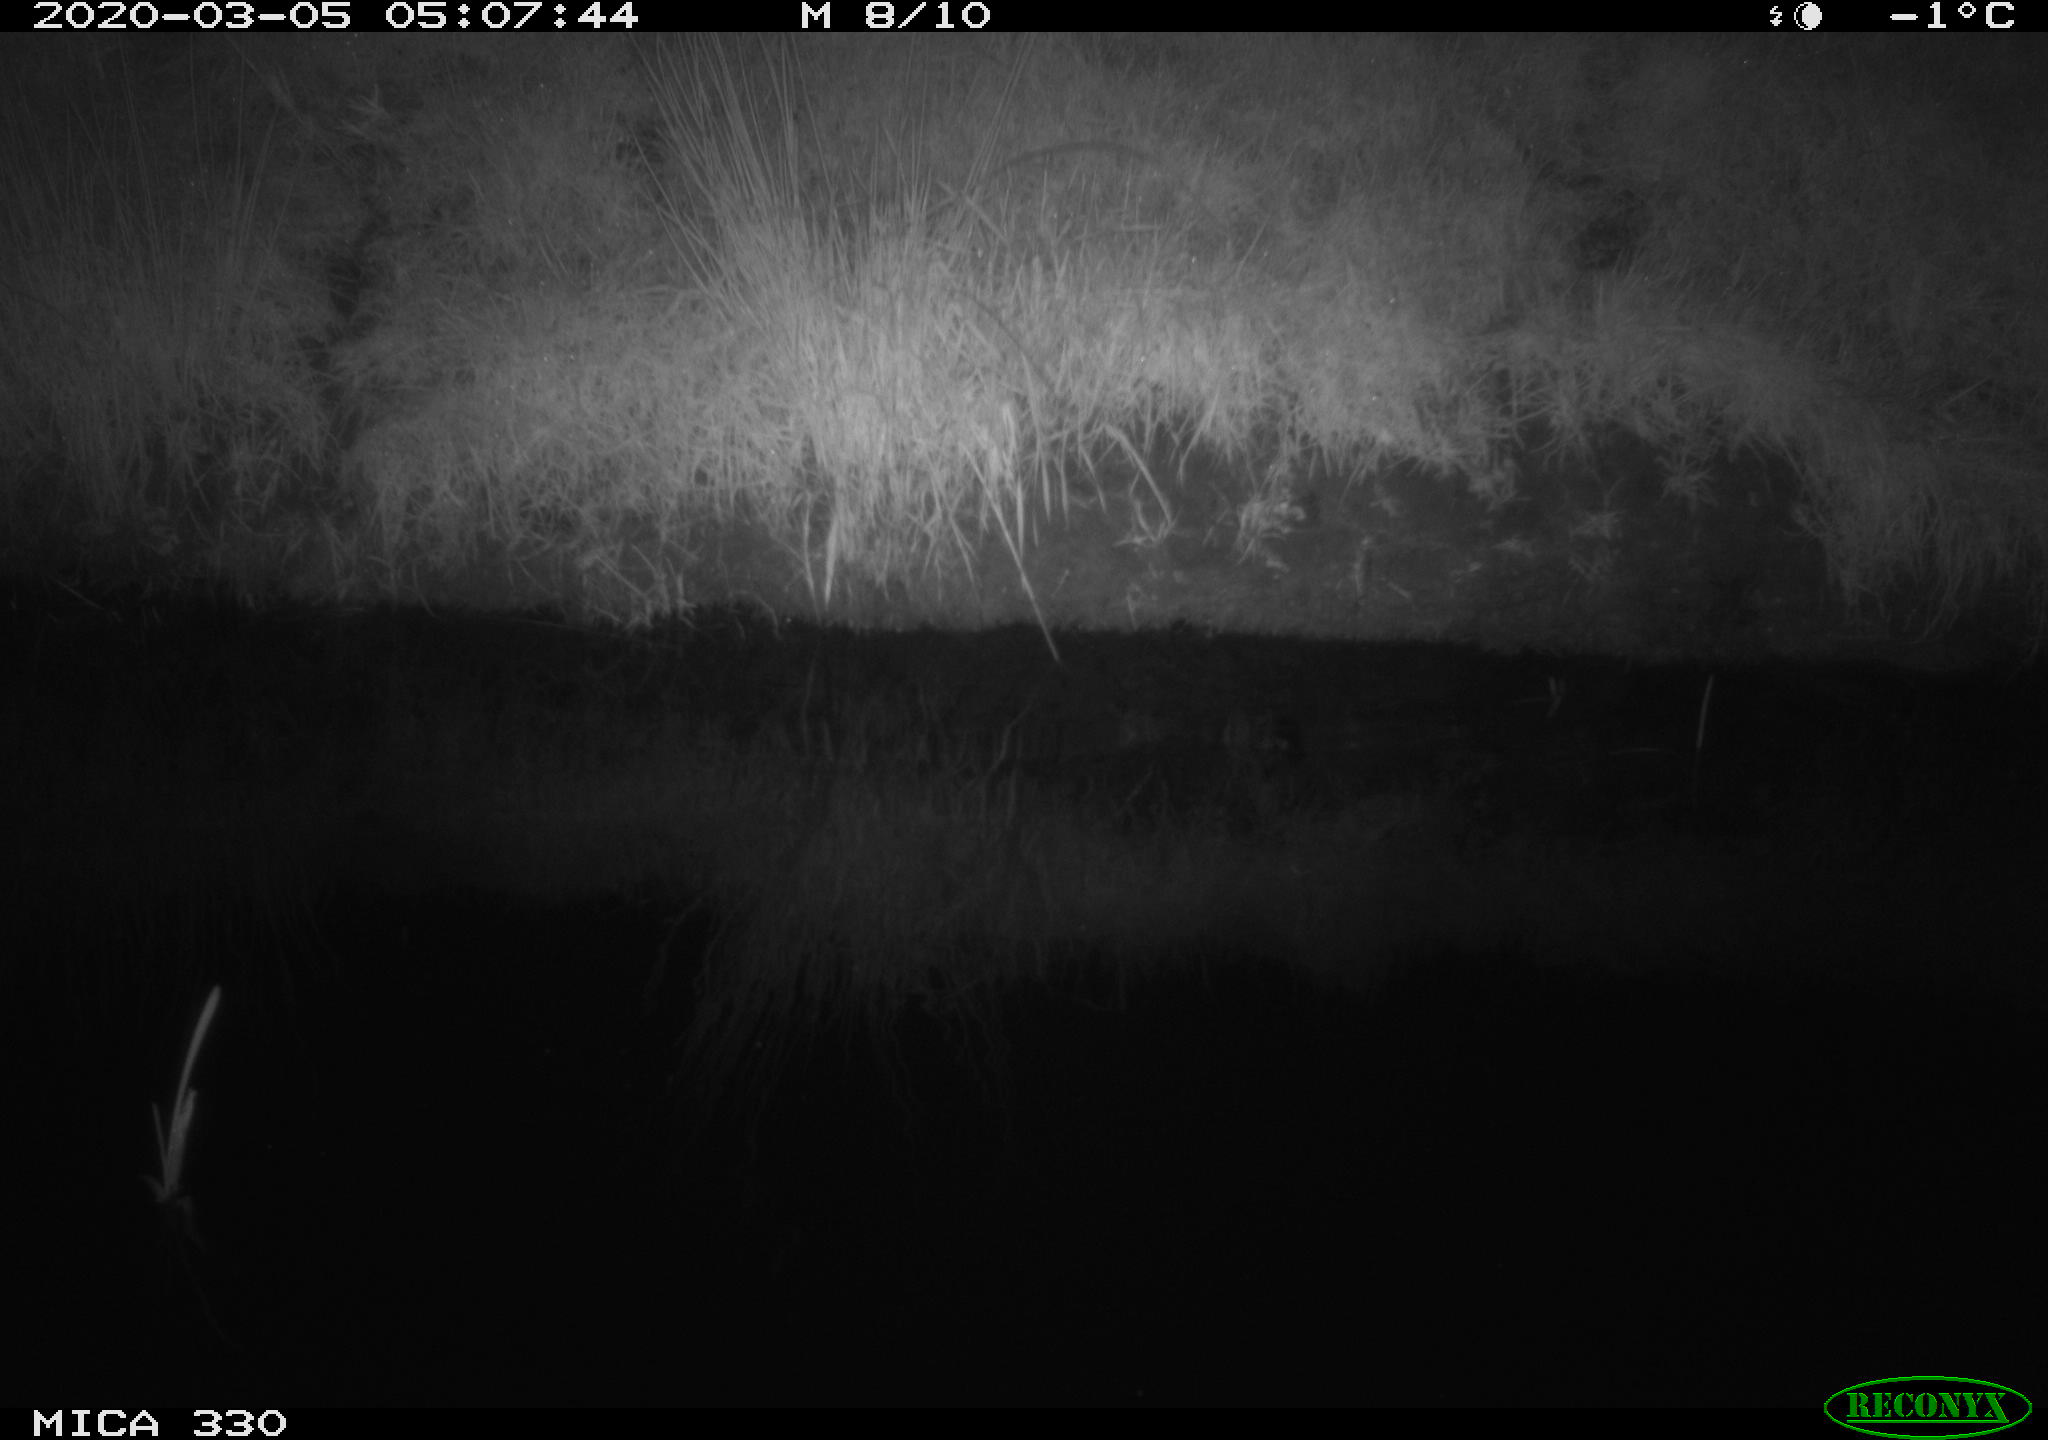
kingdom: Animalia
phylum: Chordata
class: Aves
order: Anseriformes
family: Anatidae
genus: Anas
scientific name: Anas platyrhynchos
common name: Mallard
